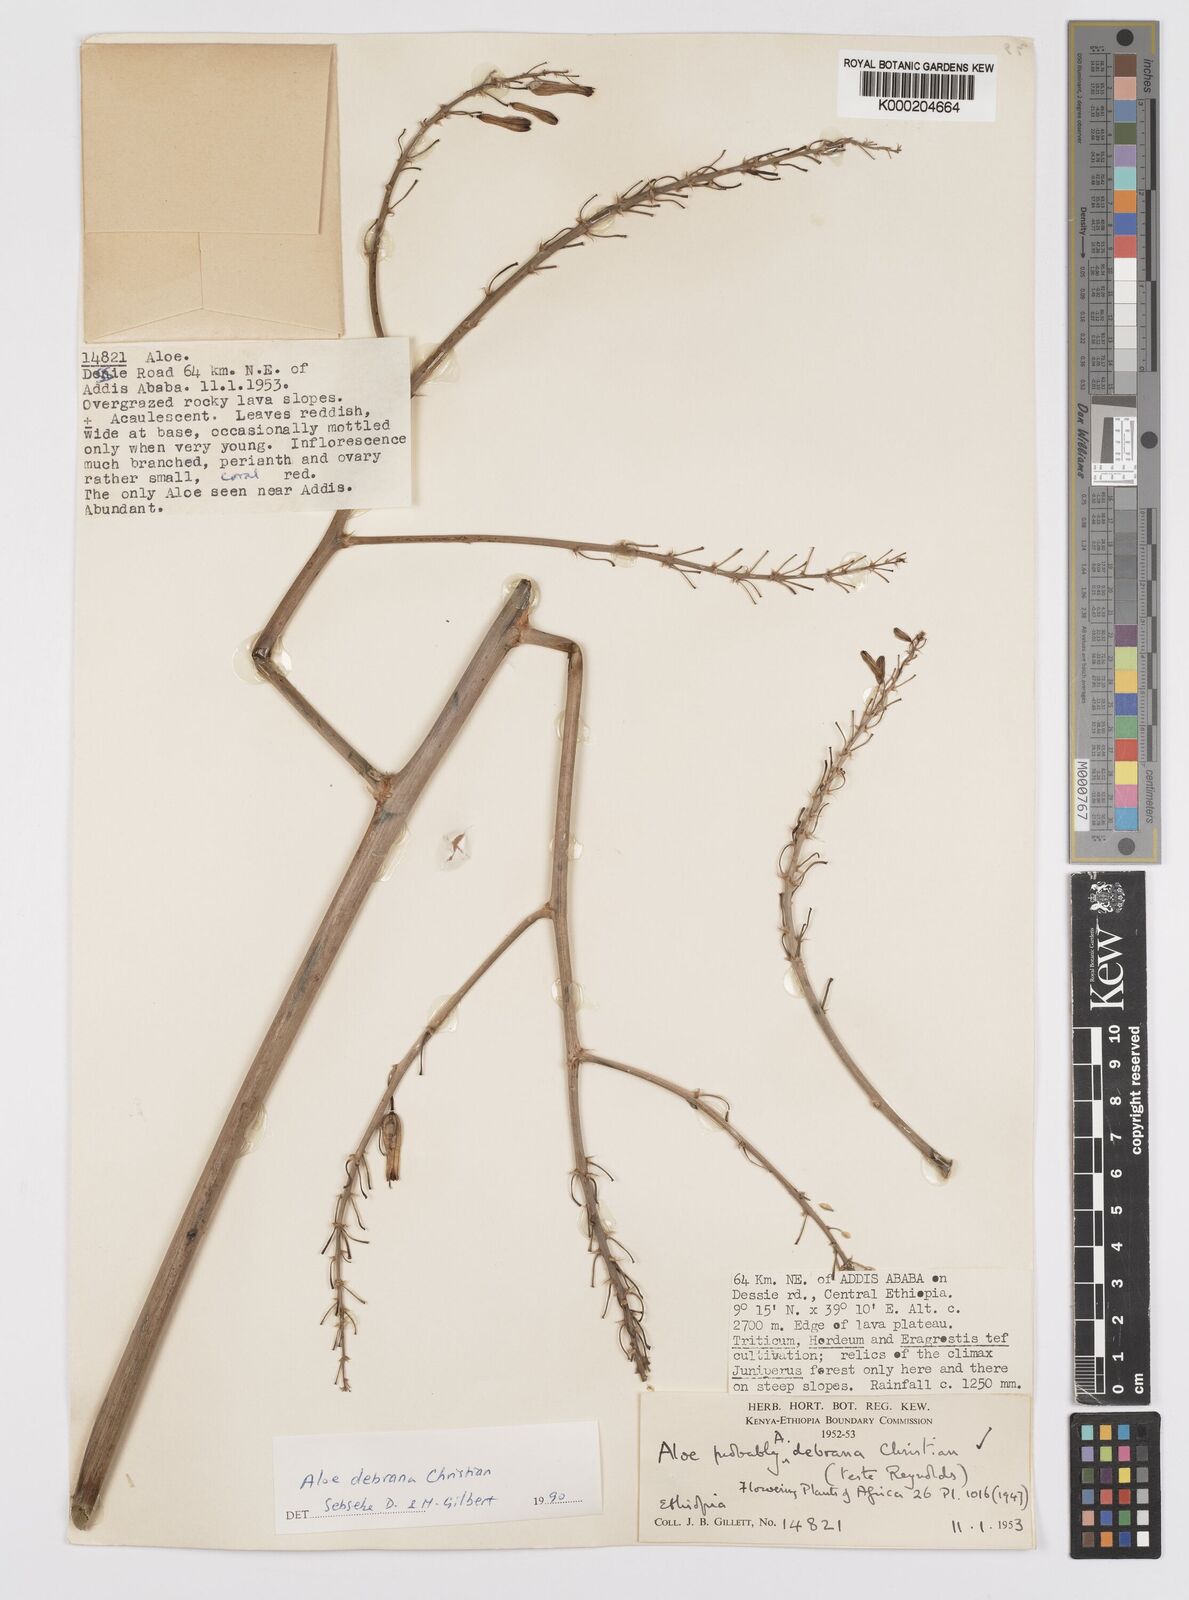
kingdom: Plantae
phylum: Tracheophyta
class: Liliopsida
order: Asparagales
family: Asphodelaceae
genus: Aloe
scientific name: Aloe debrana
